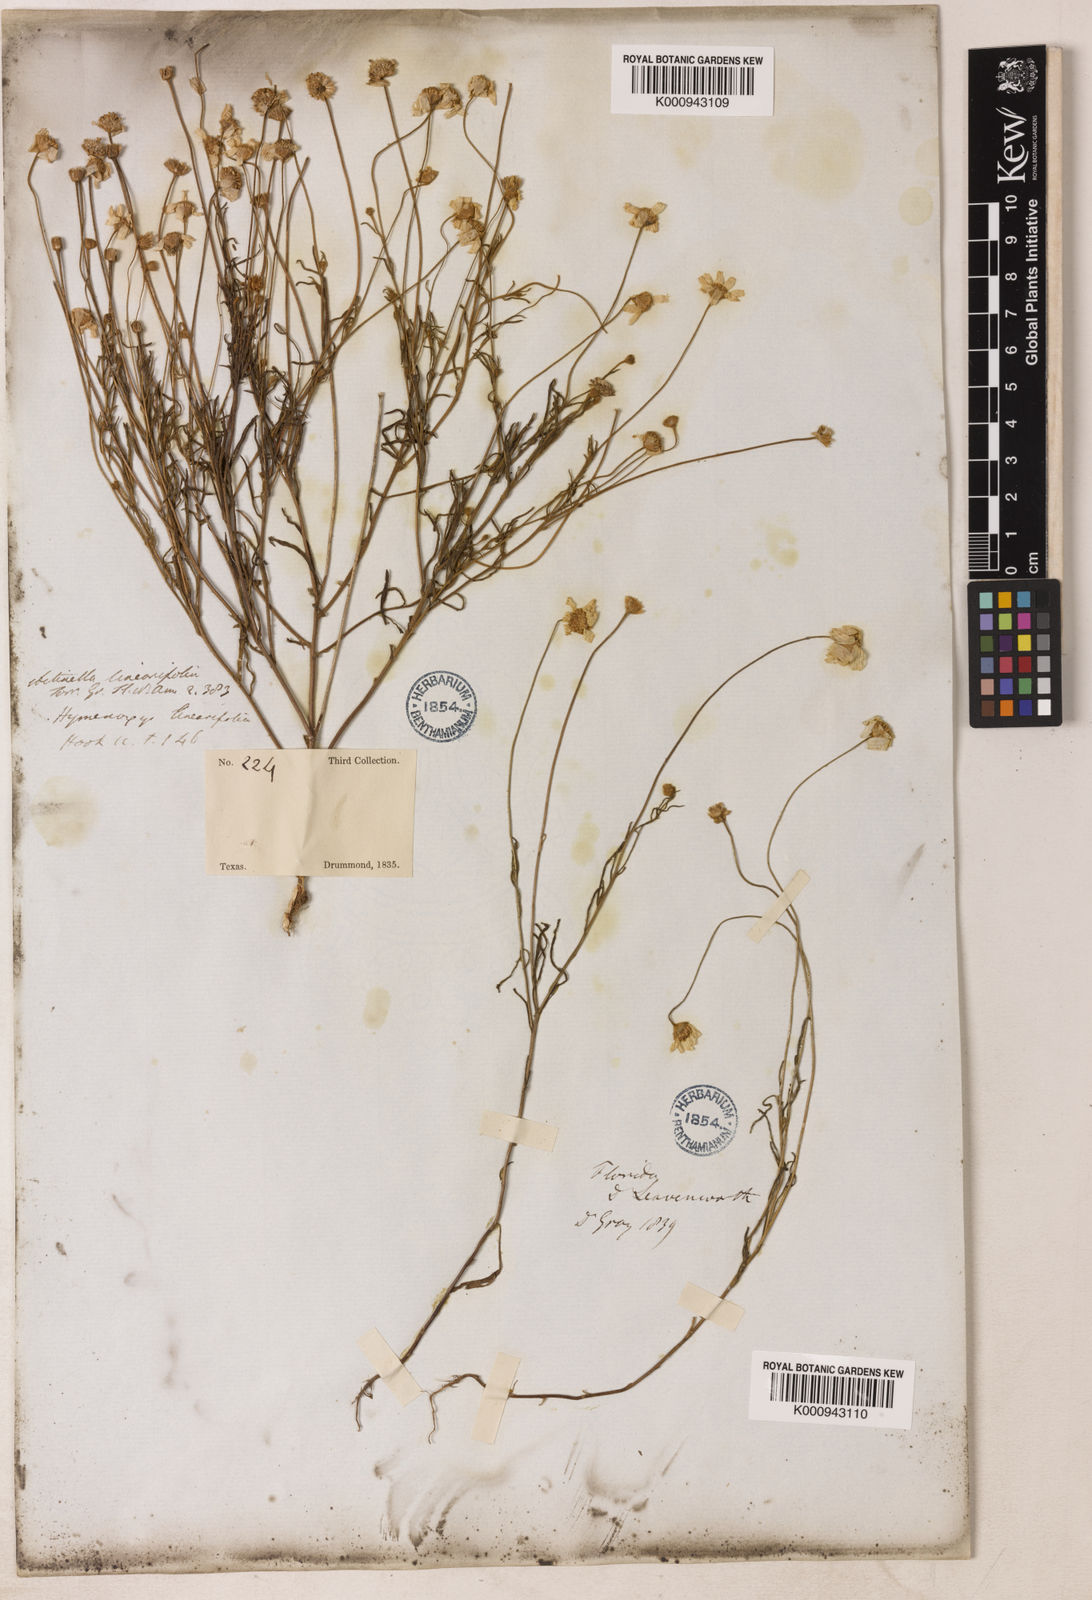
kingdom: Plantae
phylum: Tracheophyta
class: Magnoliopsida
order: Asterales
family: Asteraceae
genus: Tetraneuris
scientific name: Tetraneuris linearifolia
